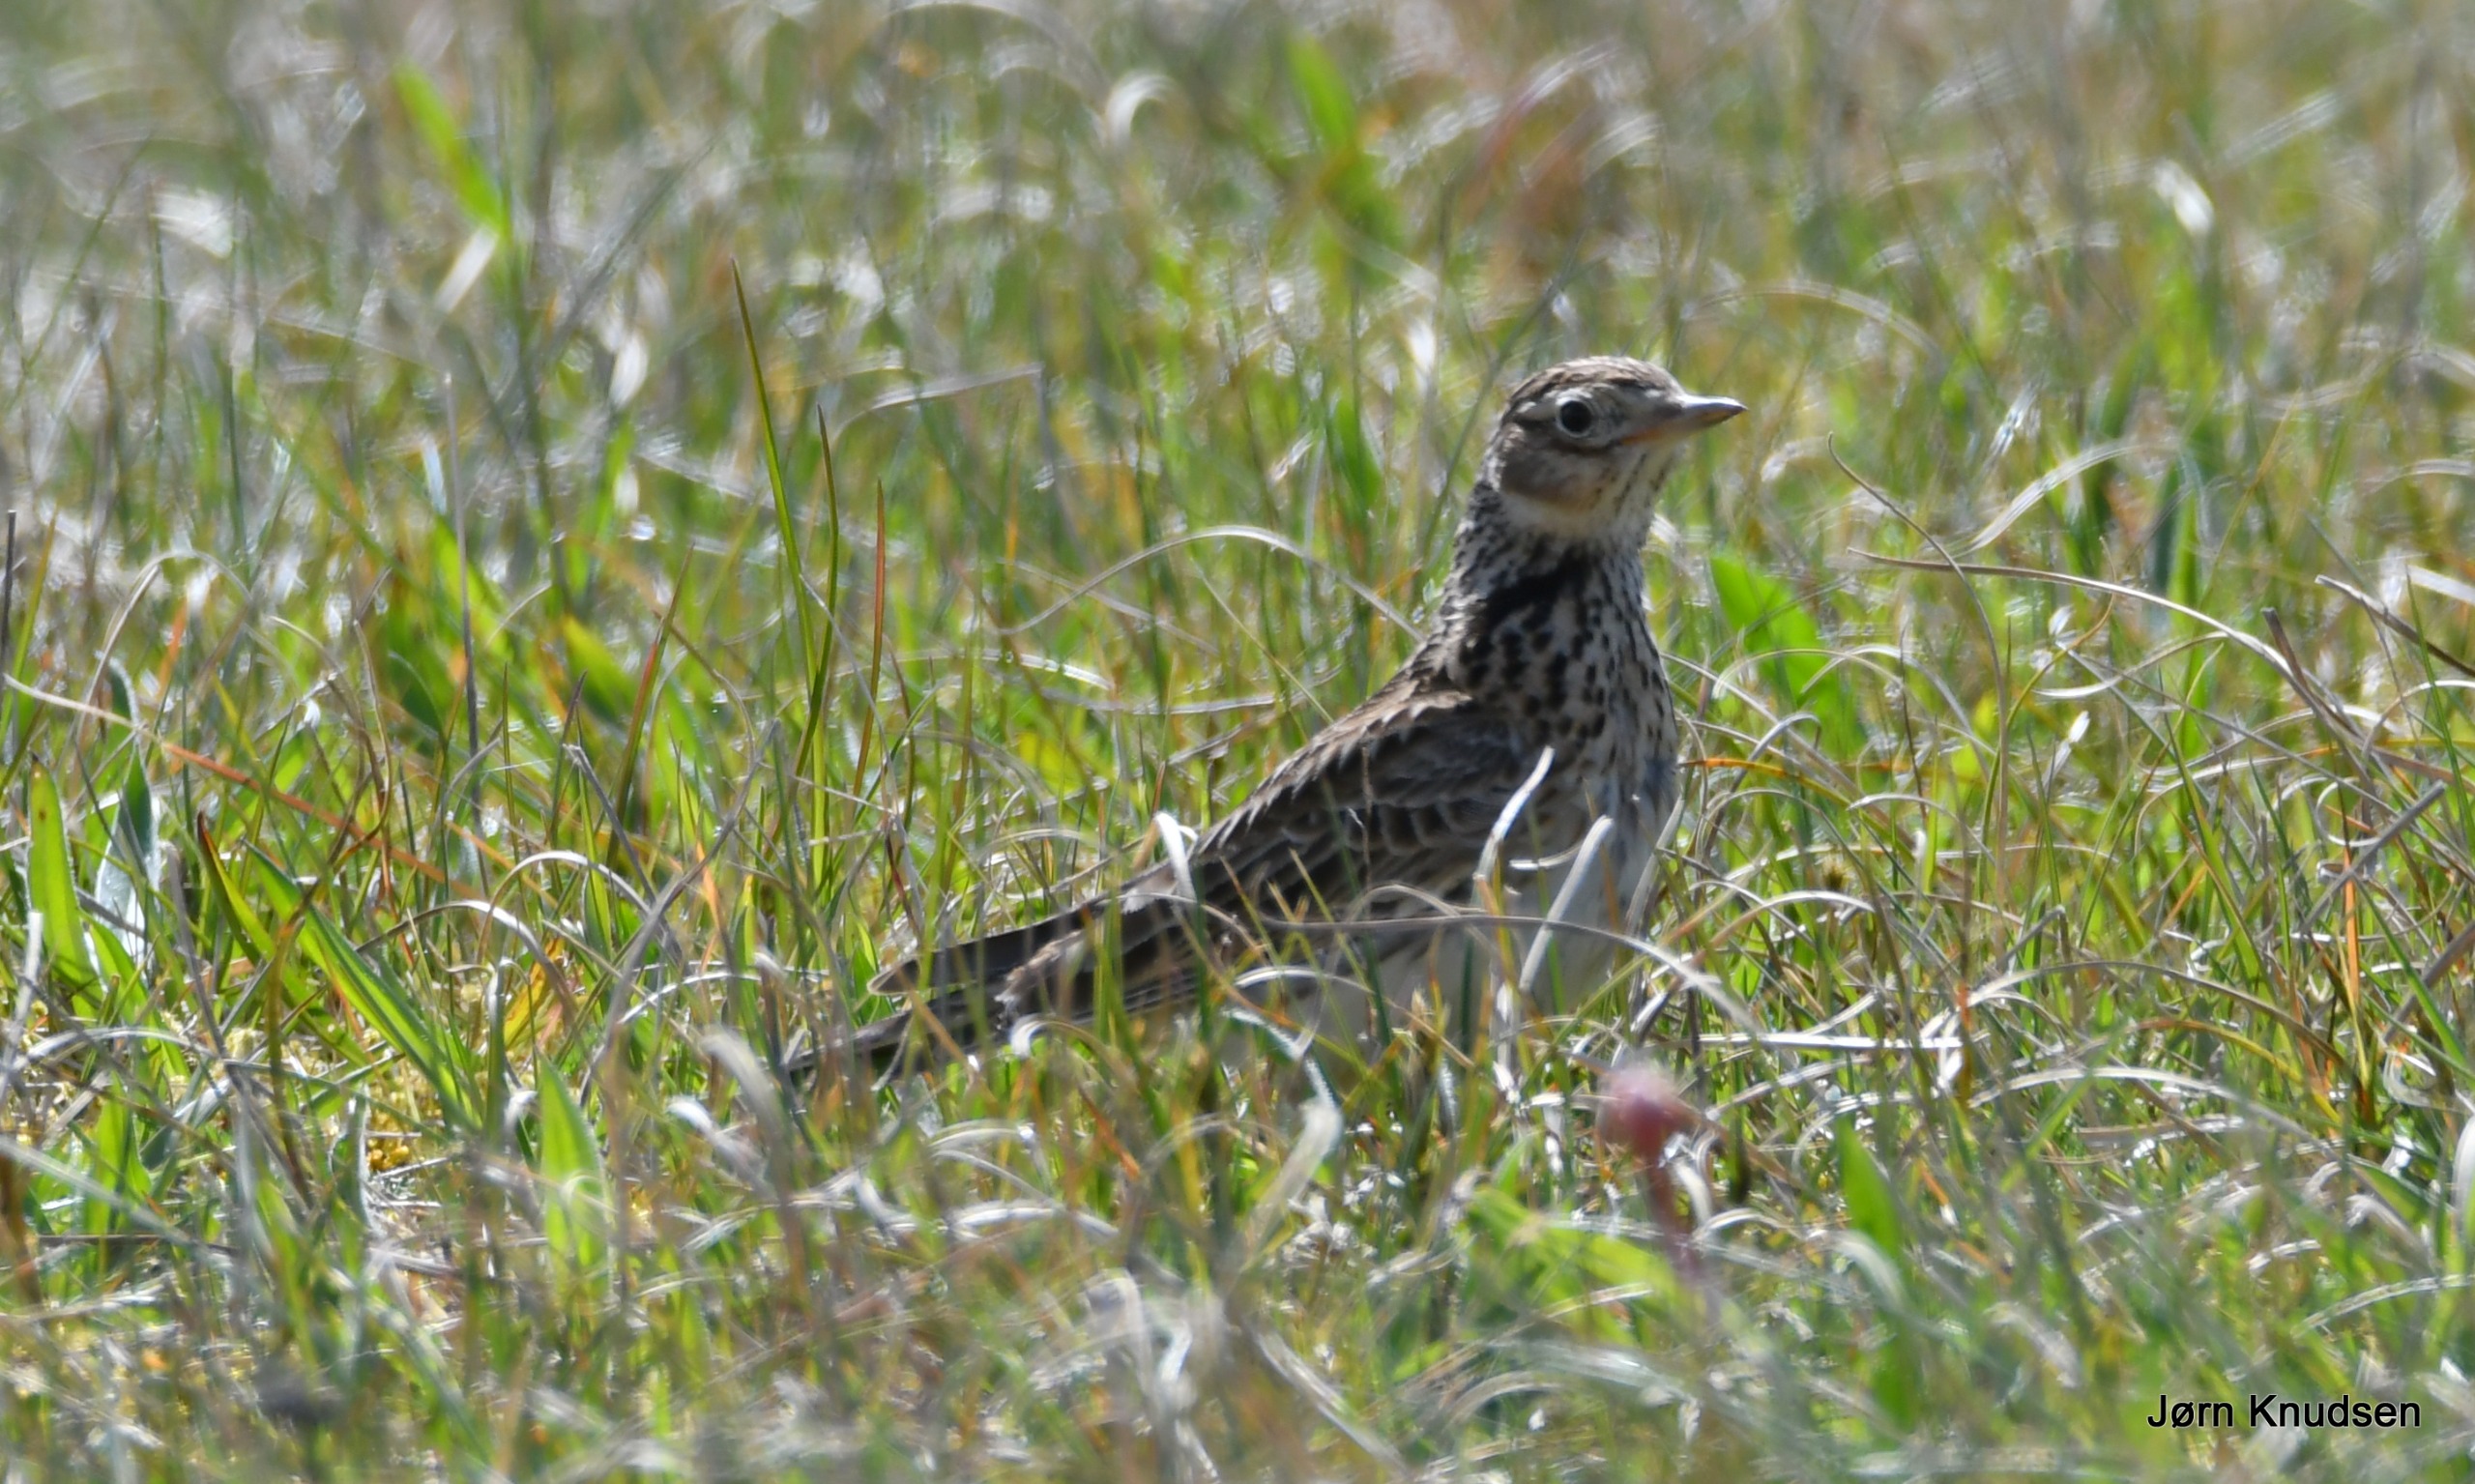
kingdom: Animalia
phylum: Chordata
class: Aves
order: Passeriformes
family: Alaudidae
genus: Alauda
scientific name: Alauda arvensis
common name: Sanglærke
